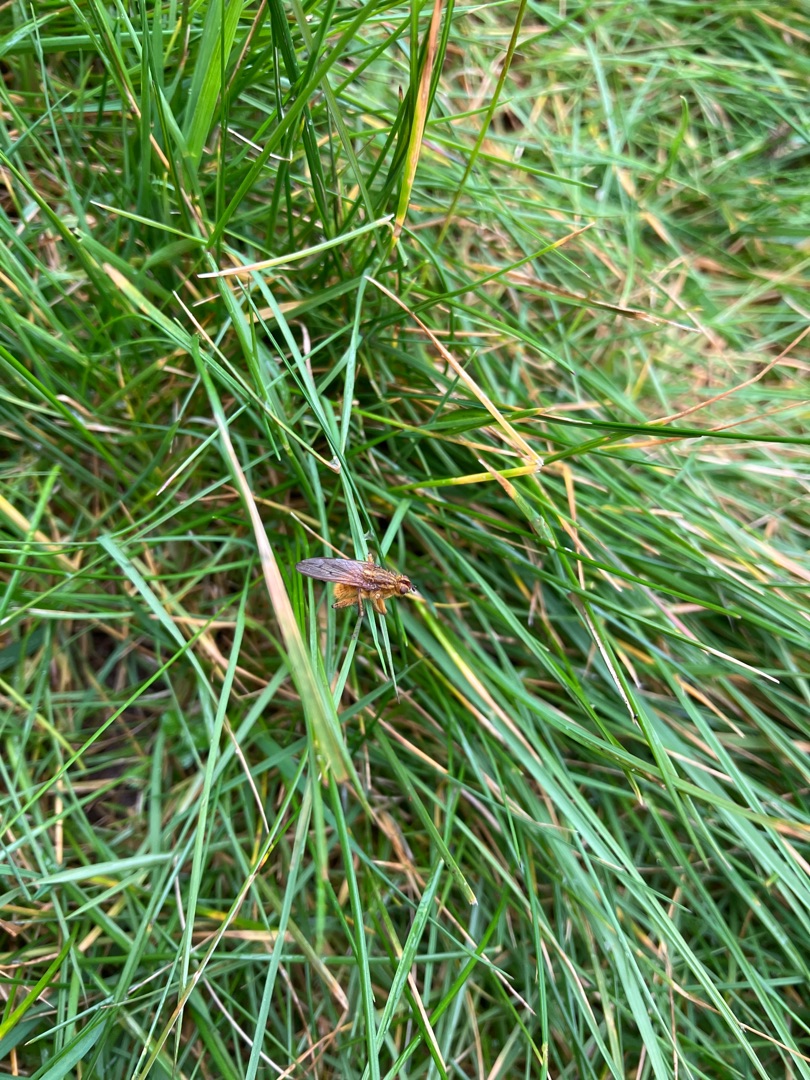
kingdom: Animalia
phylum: Arthropoda
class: Insecta
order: Diptera
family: Scathophagidae
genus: Scathophaga
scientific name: Scathophaga stercoraria
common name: Almindelig gødningsflue
